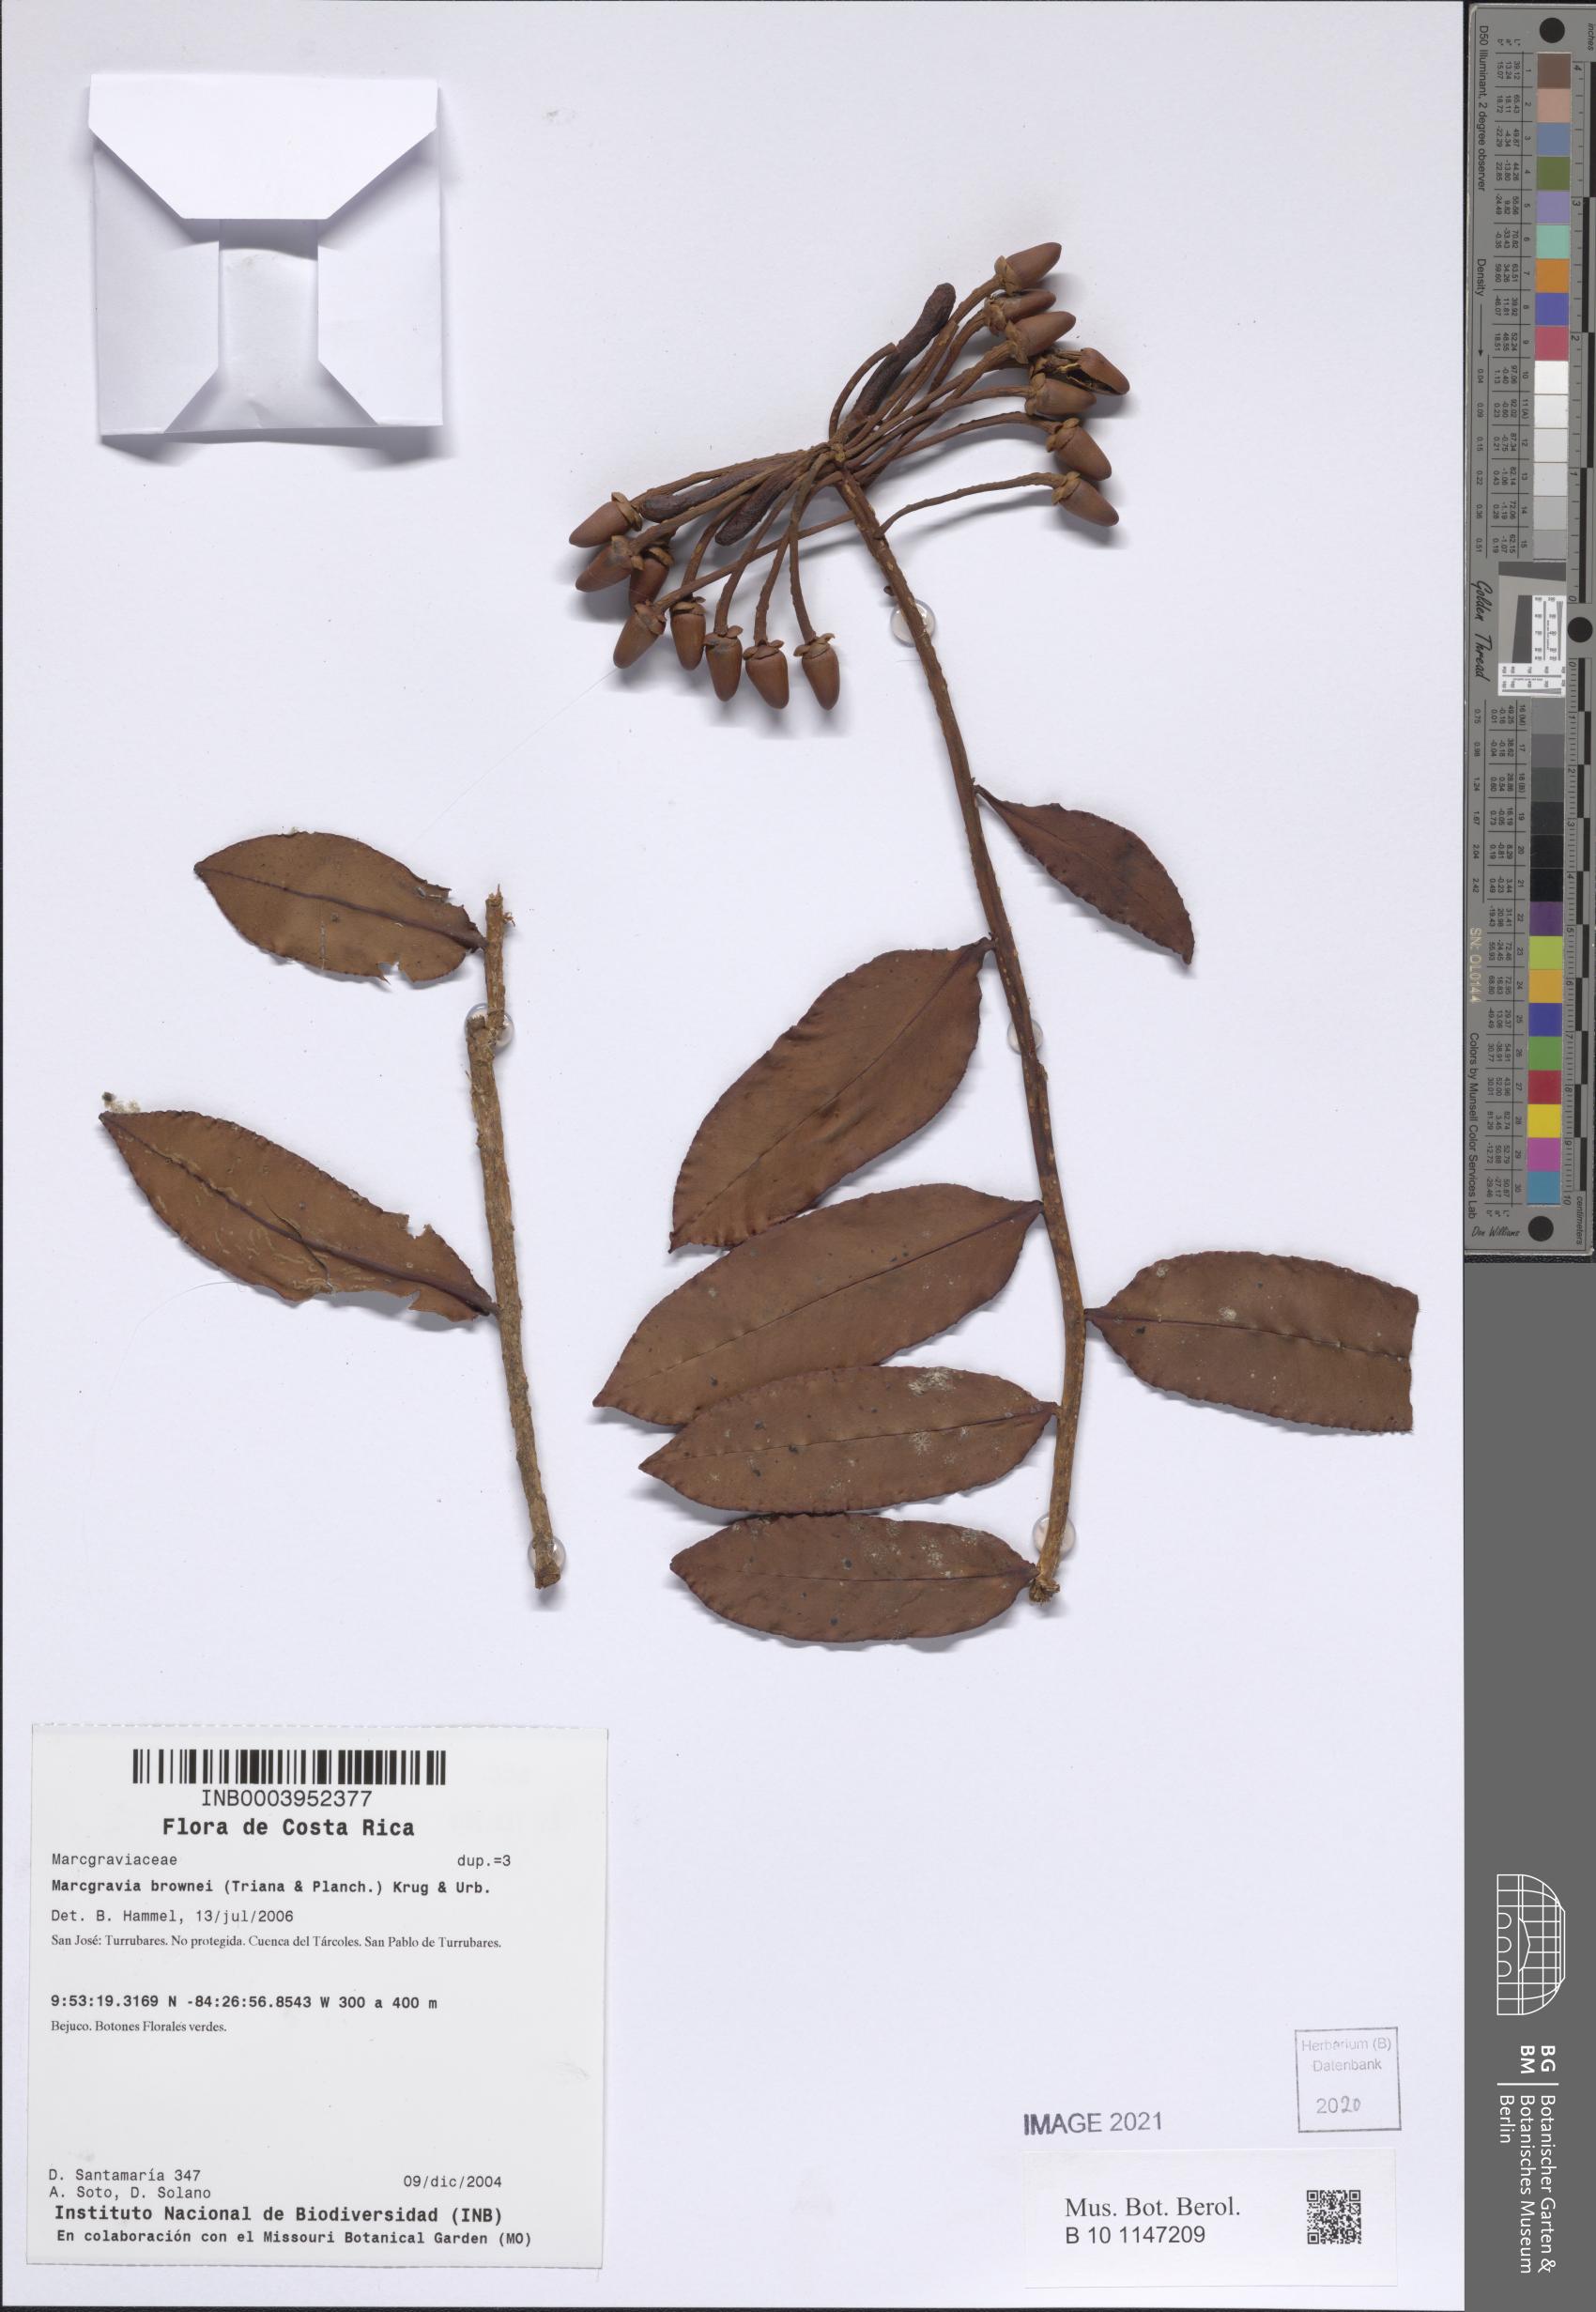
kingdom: Plantae
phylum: Tracheophyta
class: Magnoliopsida
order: Ericales
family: Marcgraviaceae
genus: Marcgravia
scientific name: Marcgravia brownei
